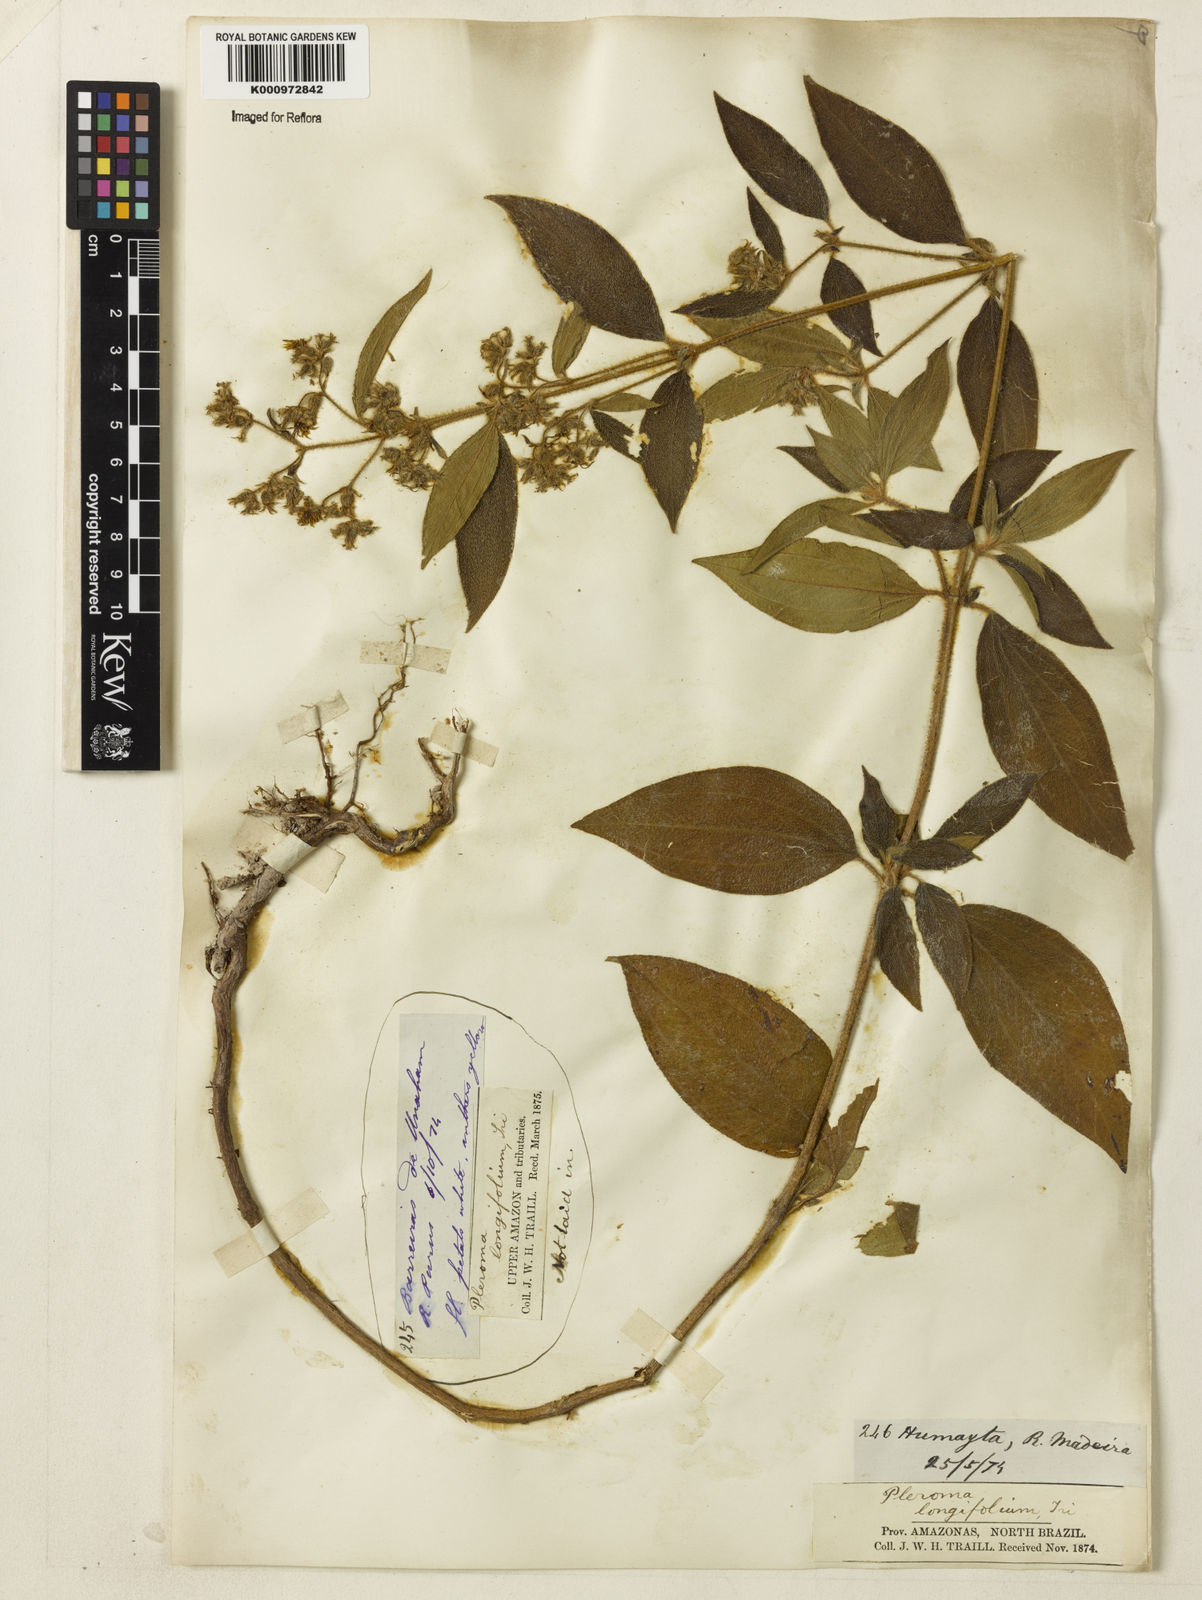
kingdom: Plantae
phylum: Tracheophyta
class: Magnoliopsida
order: Myrtales
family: Melastomataceae
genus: Chaetogastra
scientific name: Chaetogastra longifolia
